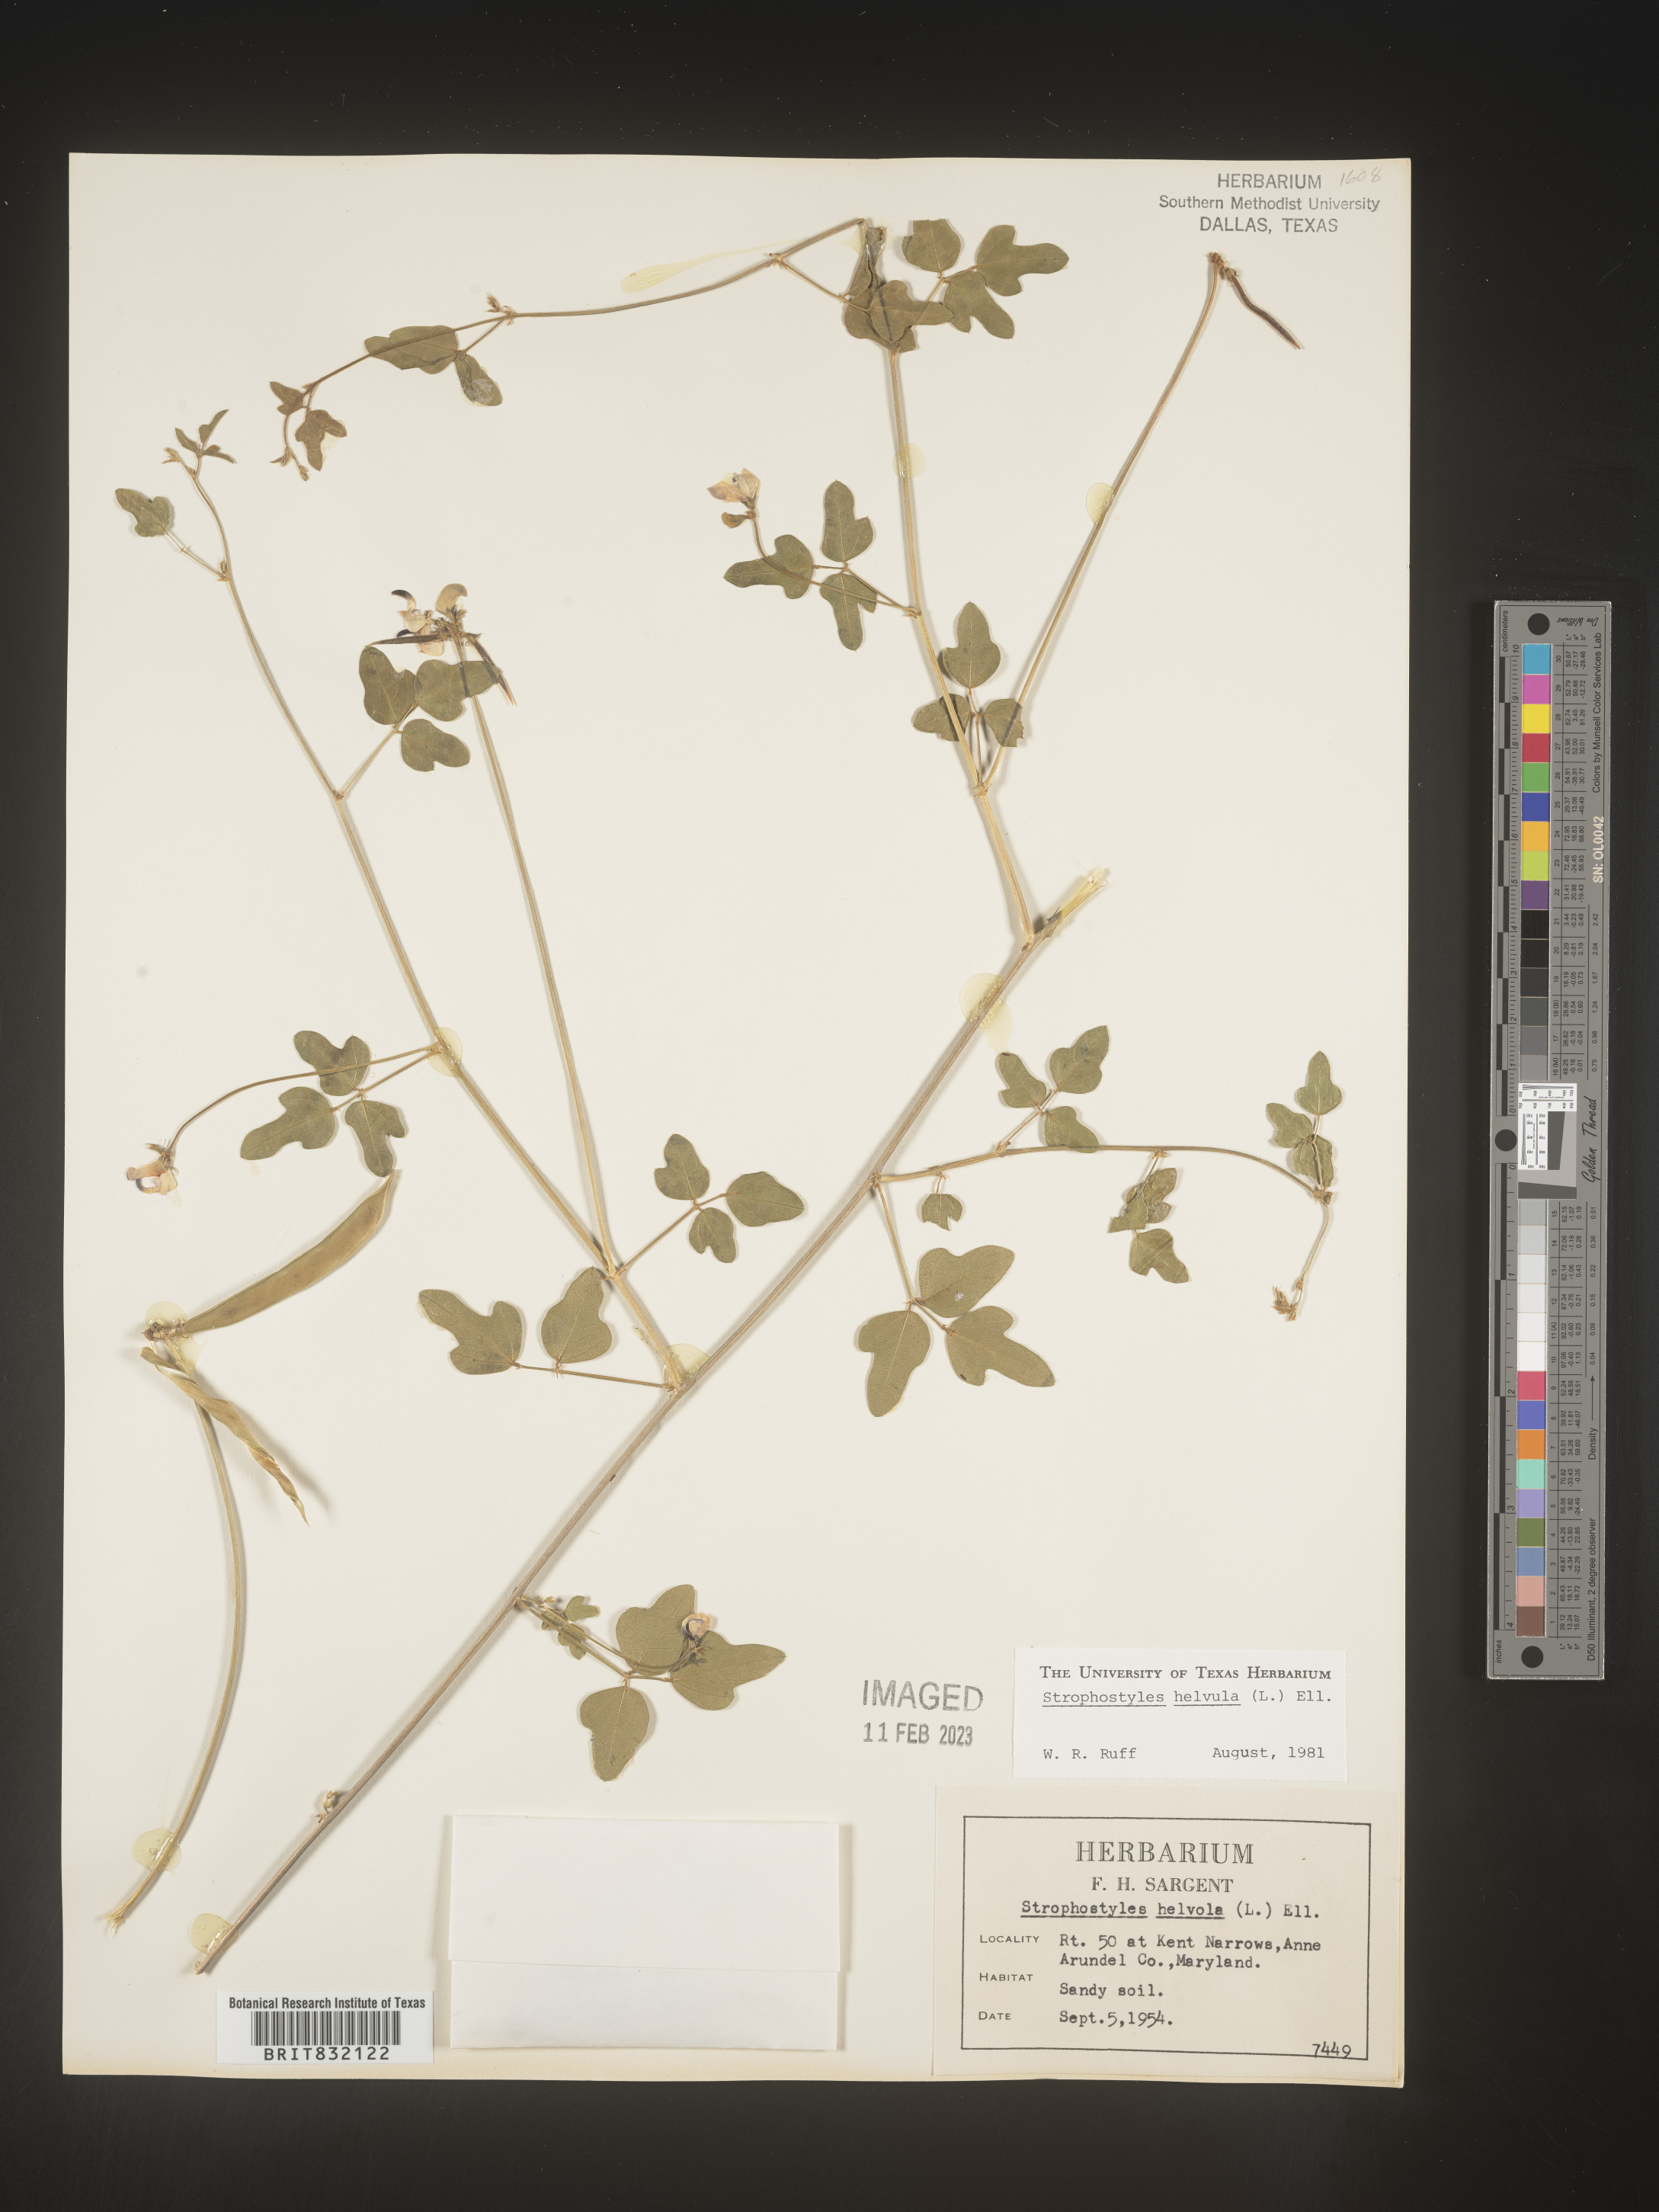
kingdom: Plantae
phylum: Tracheophyta
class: Magnoliopsida
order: Fabales
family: Fabaceae
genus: Strophostyles
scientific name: Strophostyles helvola
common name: Trailing wild bean
